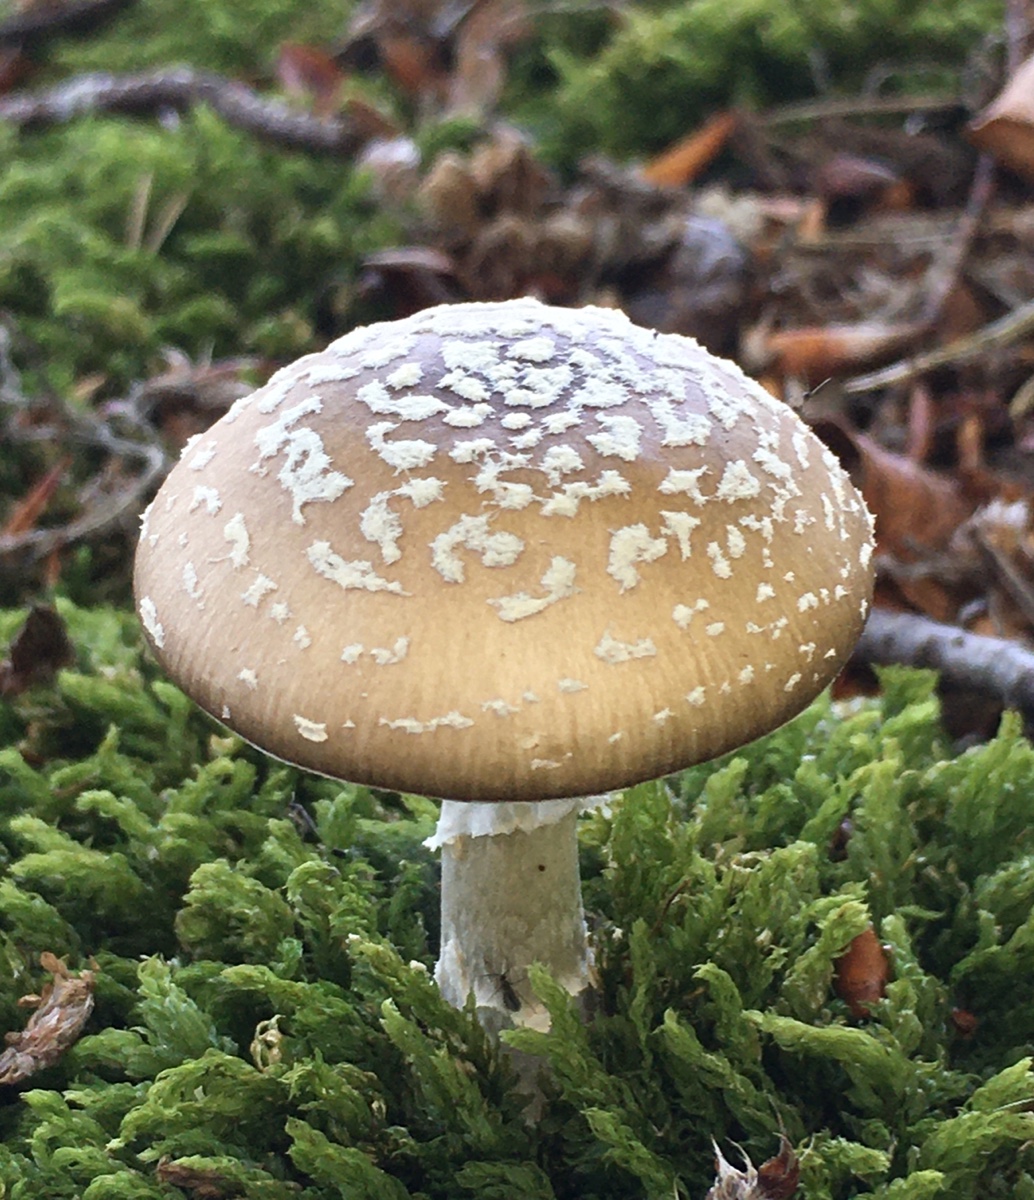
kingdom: Fungi
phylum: Basidiomycota
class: Agaricomycetes
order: Agaricales
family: Amanitaceae
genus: Amanita
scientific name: Amanita pantherina
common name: panter-fluesvamp
